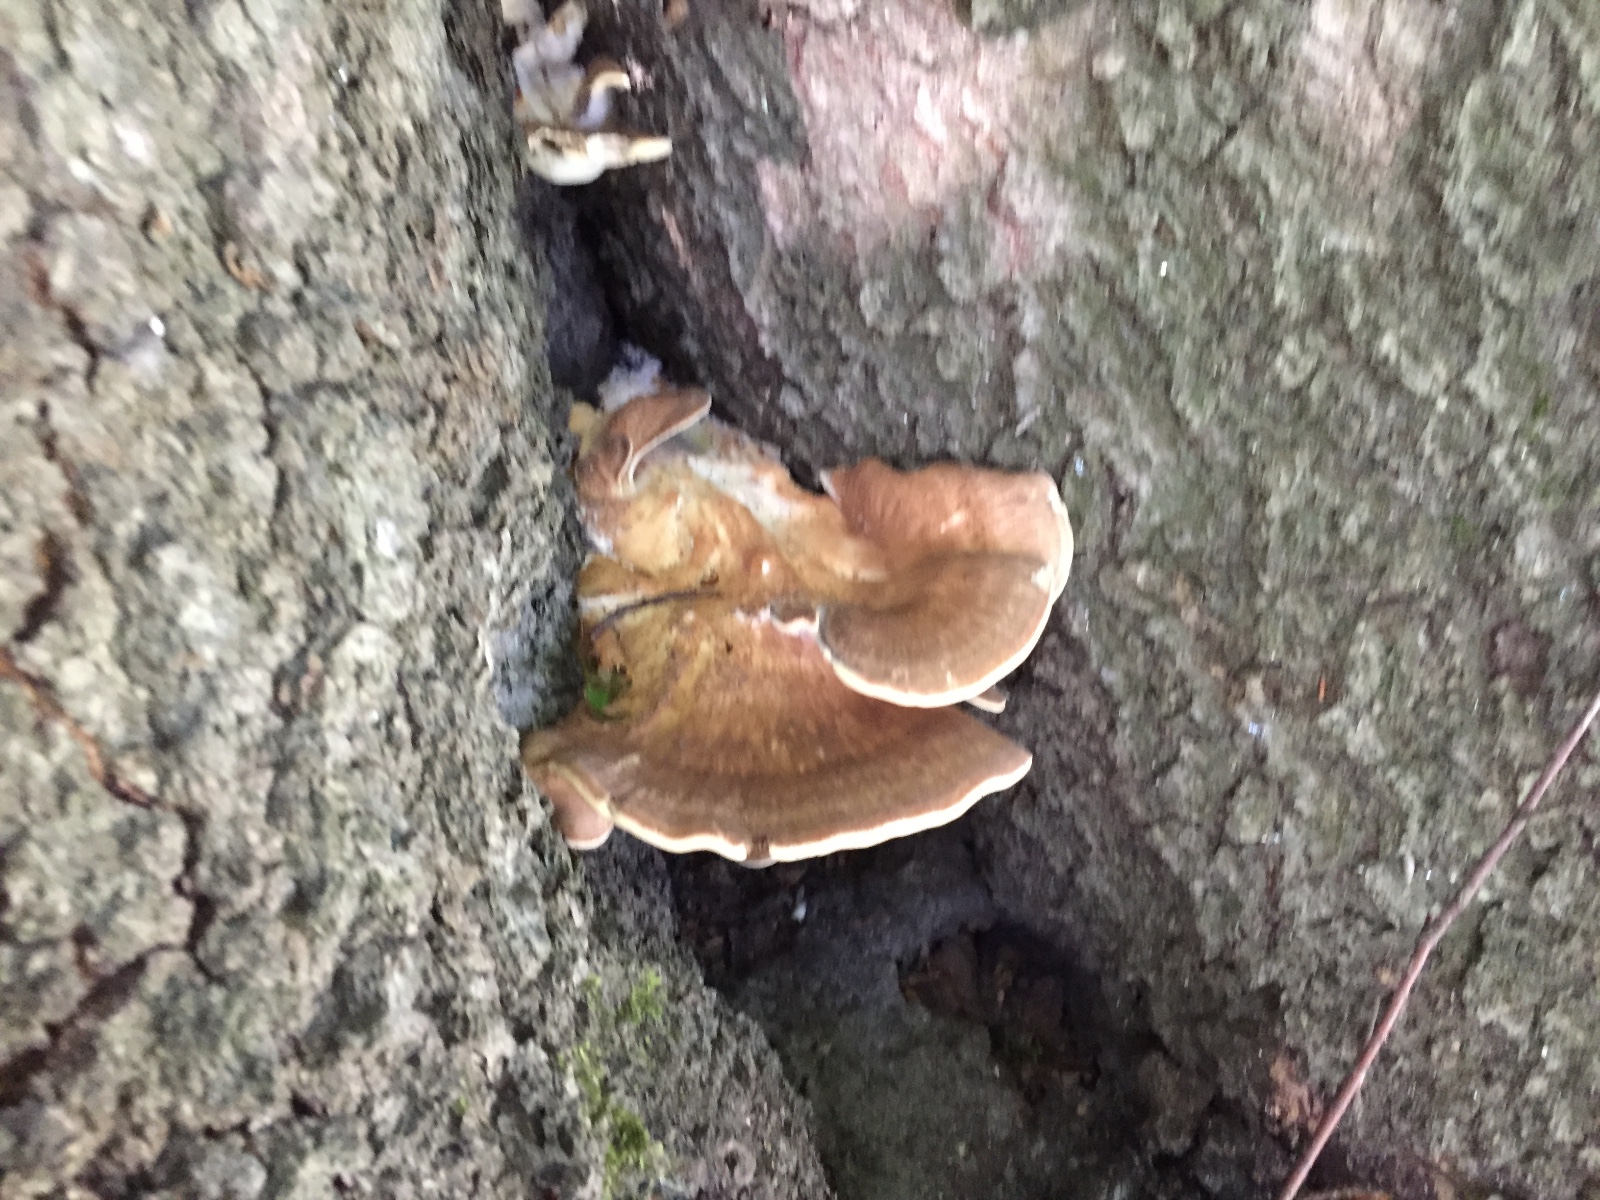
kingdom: Fungi
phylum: Basidiomycota
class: Agaricomycetes
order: Polyporales
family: Meripilaceae
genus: Meripilus
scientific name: Meripilus giganteus
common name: kæmpeporesvamp
